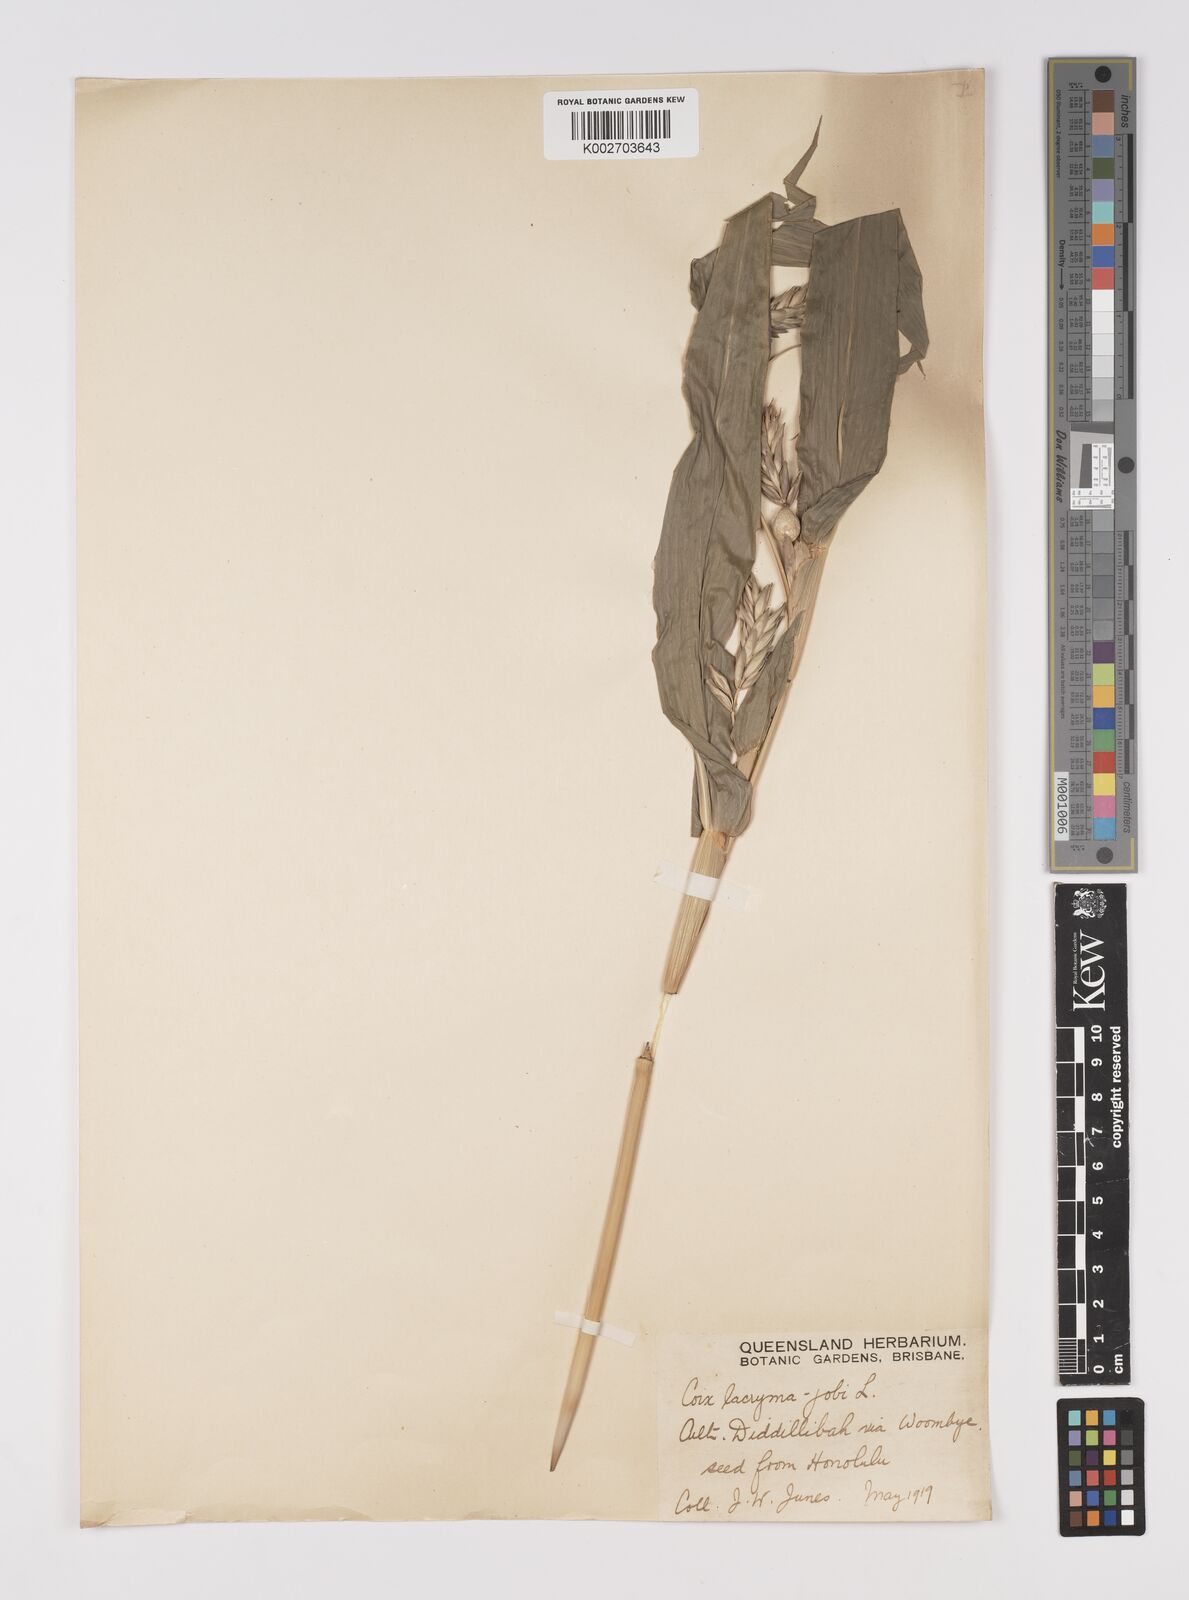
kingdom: Plantae
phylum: Tracheophyta
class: Liliopsida
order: Poales
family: Poaceae
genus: Coix
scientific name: Coix lacryma-jobi
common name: Job's tears
